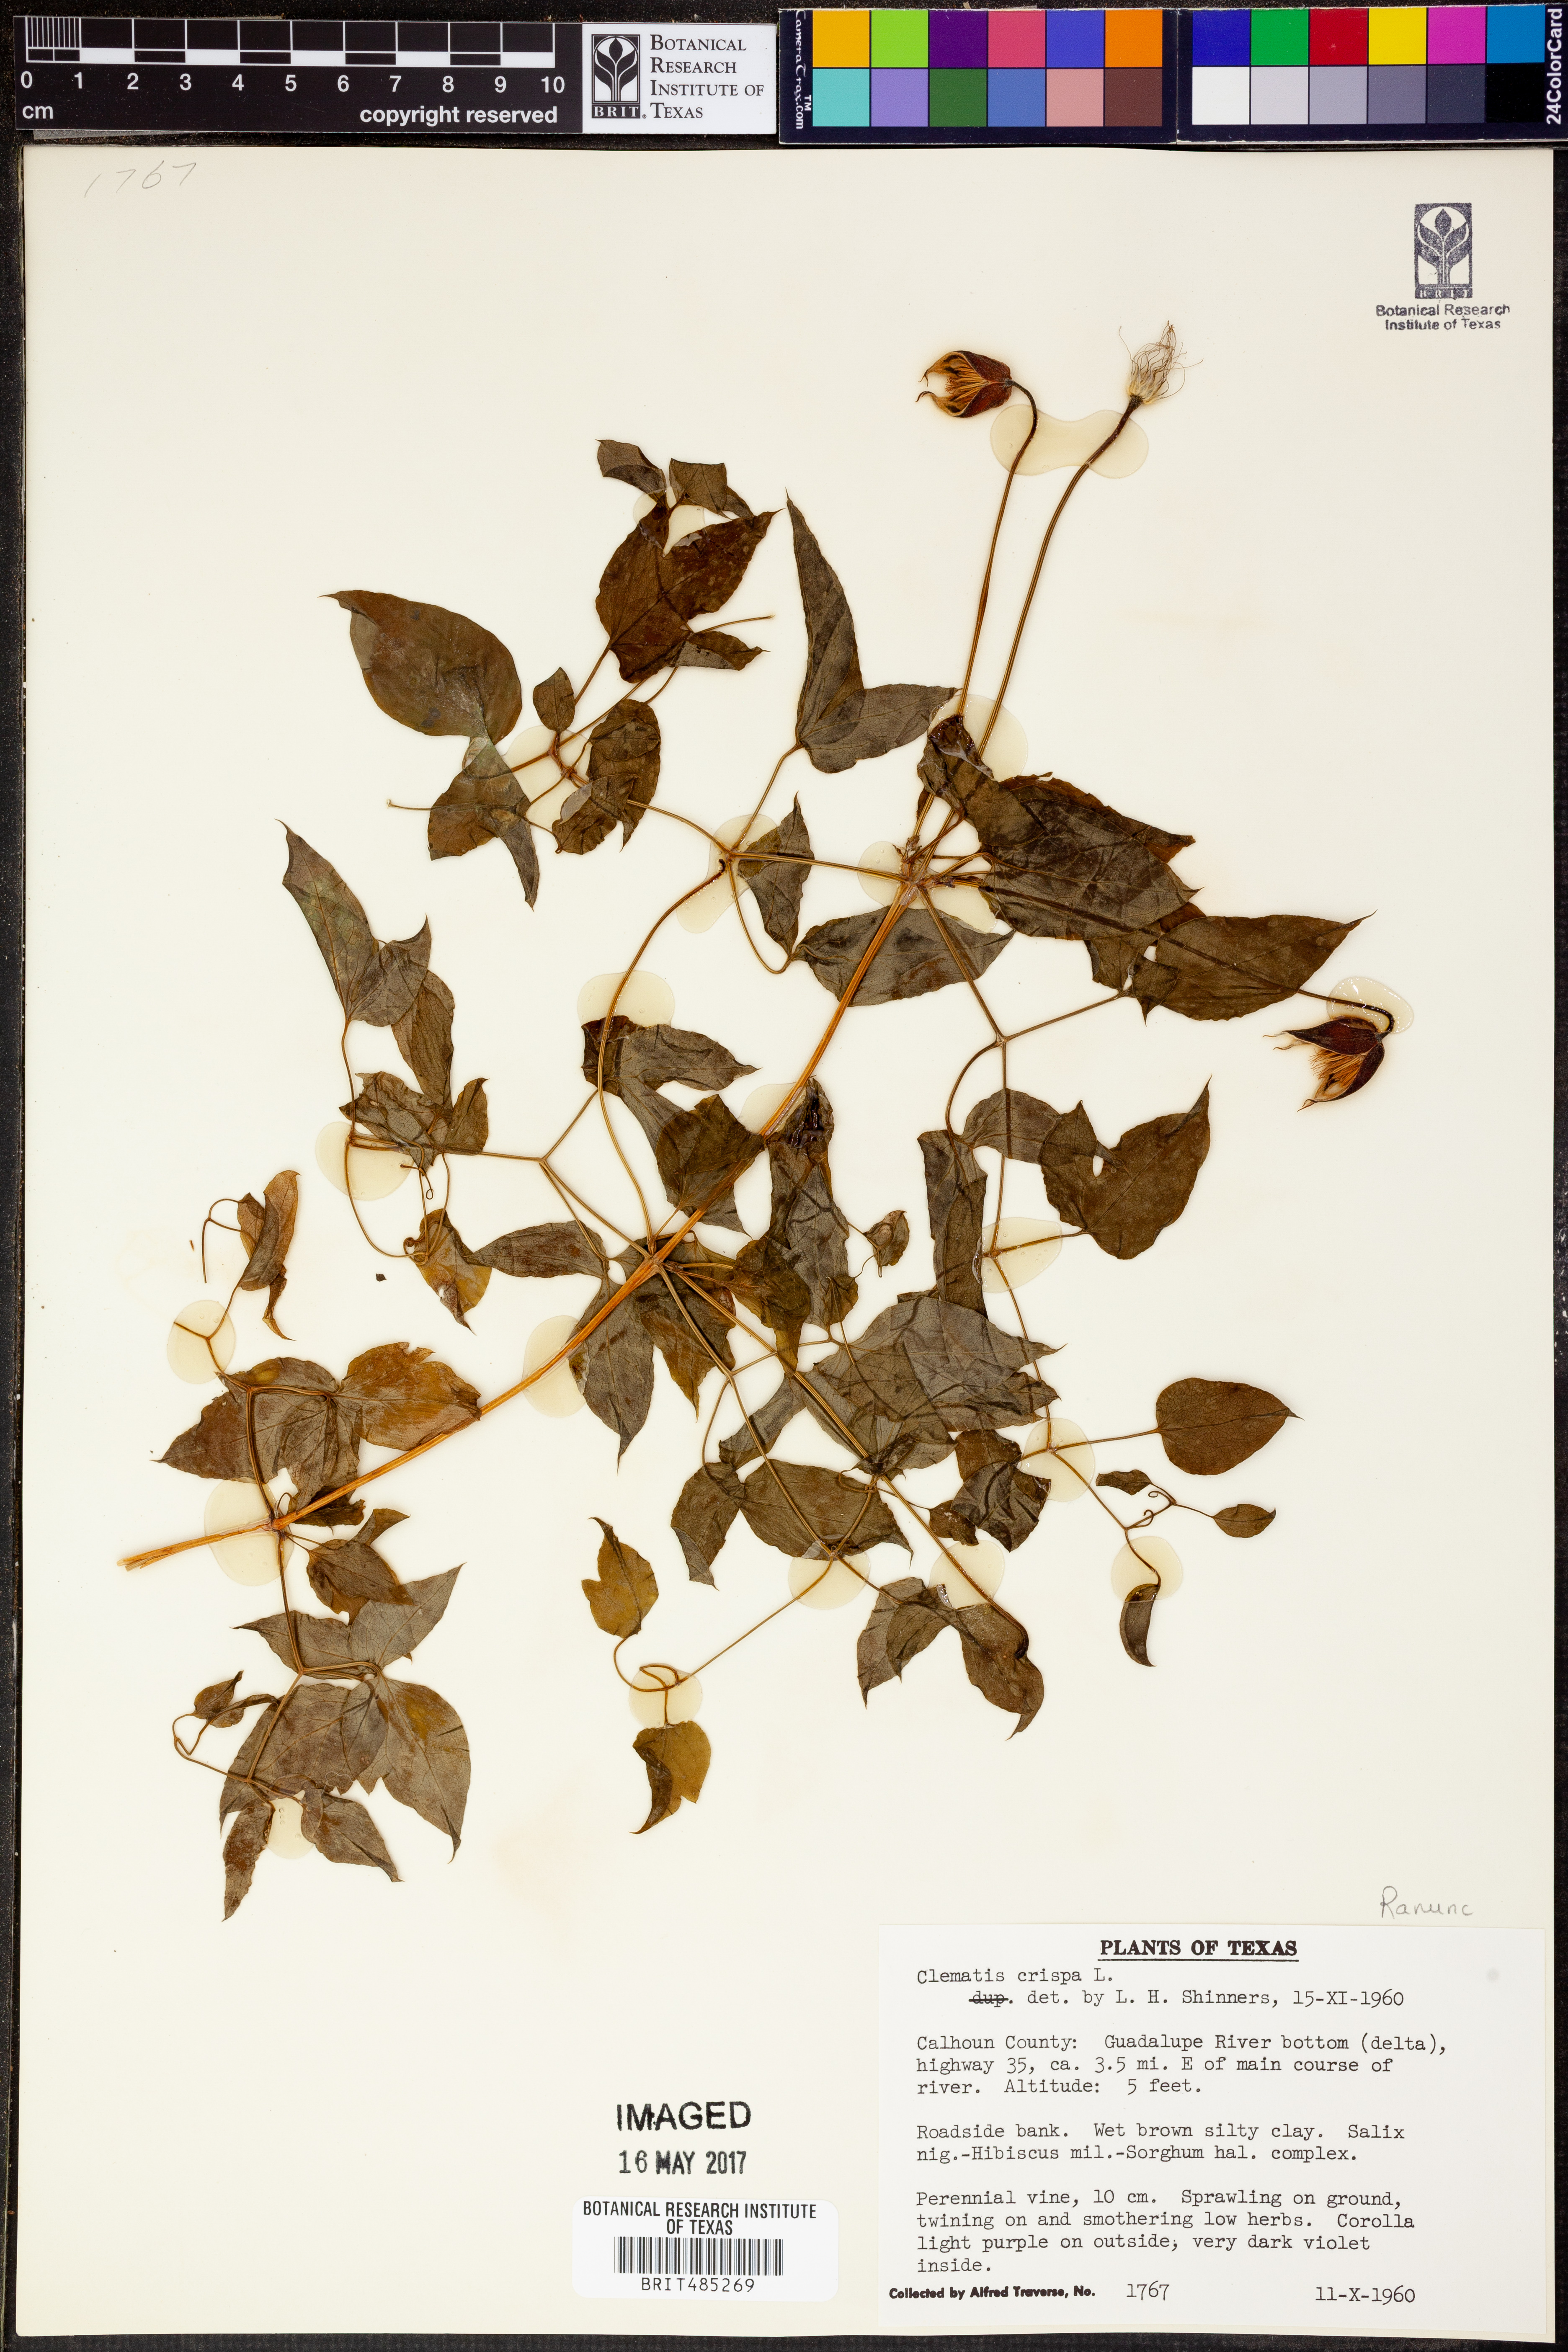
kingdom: Plantae
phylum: Tracheophyta
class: Magnoliopsida
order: Ranunculales
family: Ranunculaceae
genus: Clematis
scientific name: Clematis crispa
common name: Curly clematis
